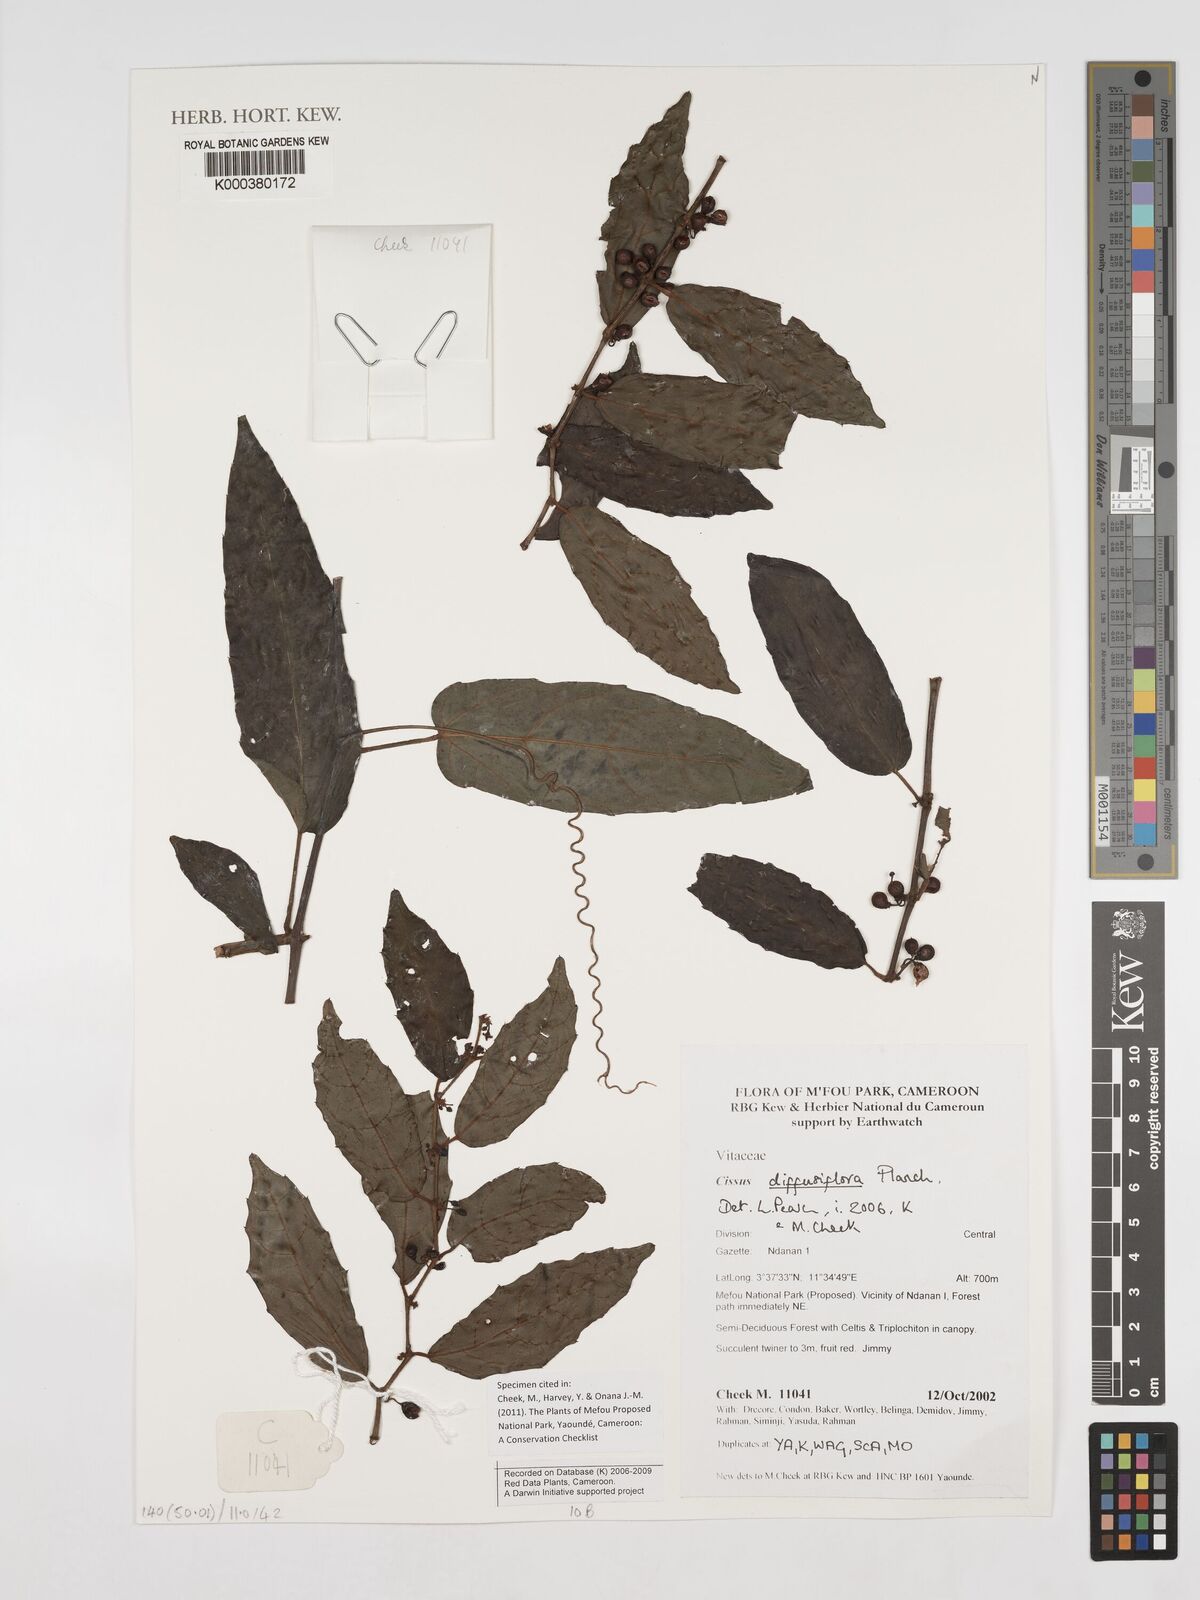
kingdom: Plantae
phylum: Tracheophyta
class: Magnoliopsida
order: Vitales
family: Vitaceae
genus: Cissus
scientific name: Cissus diffusiflora
